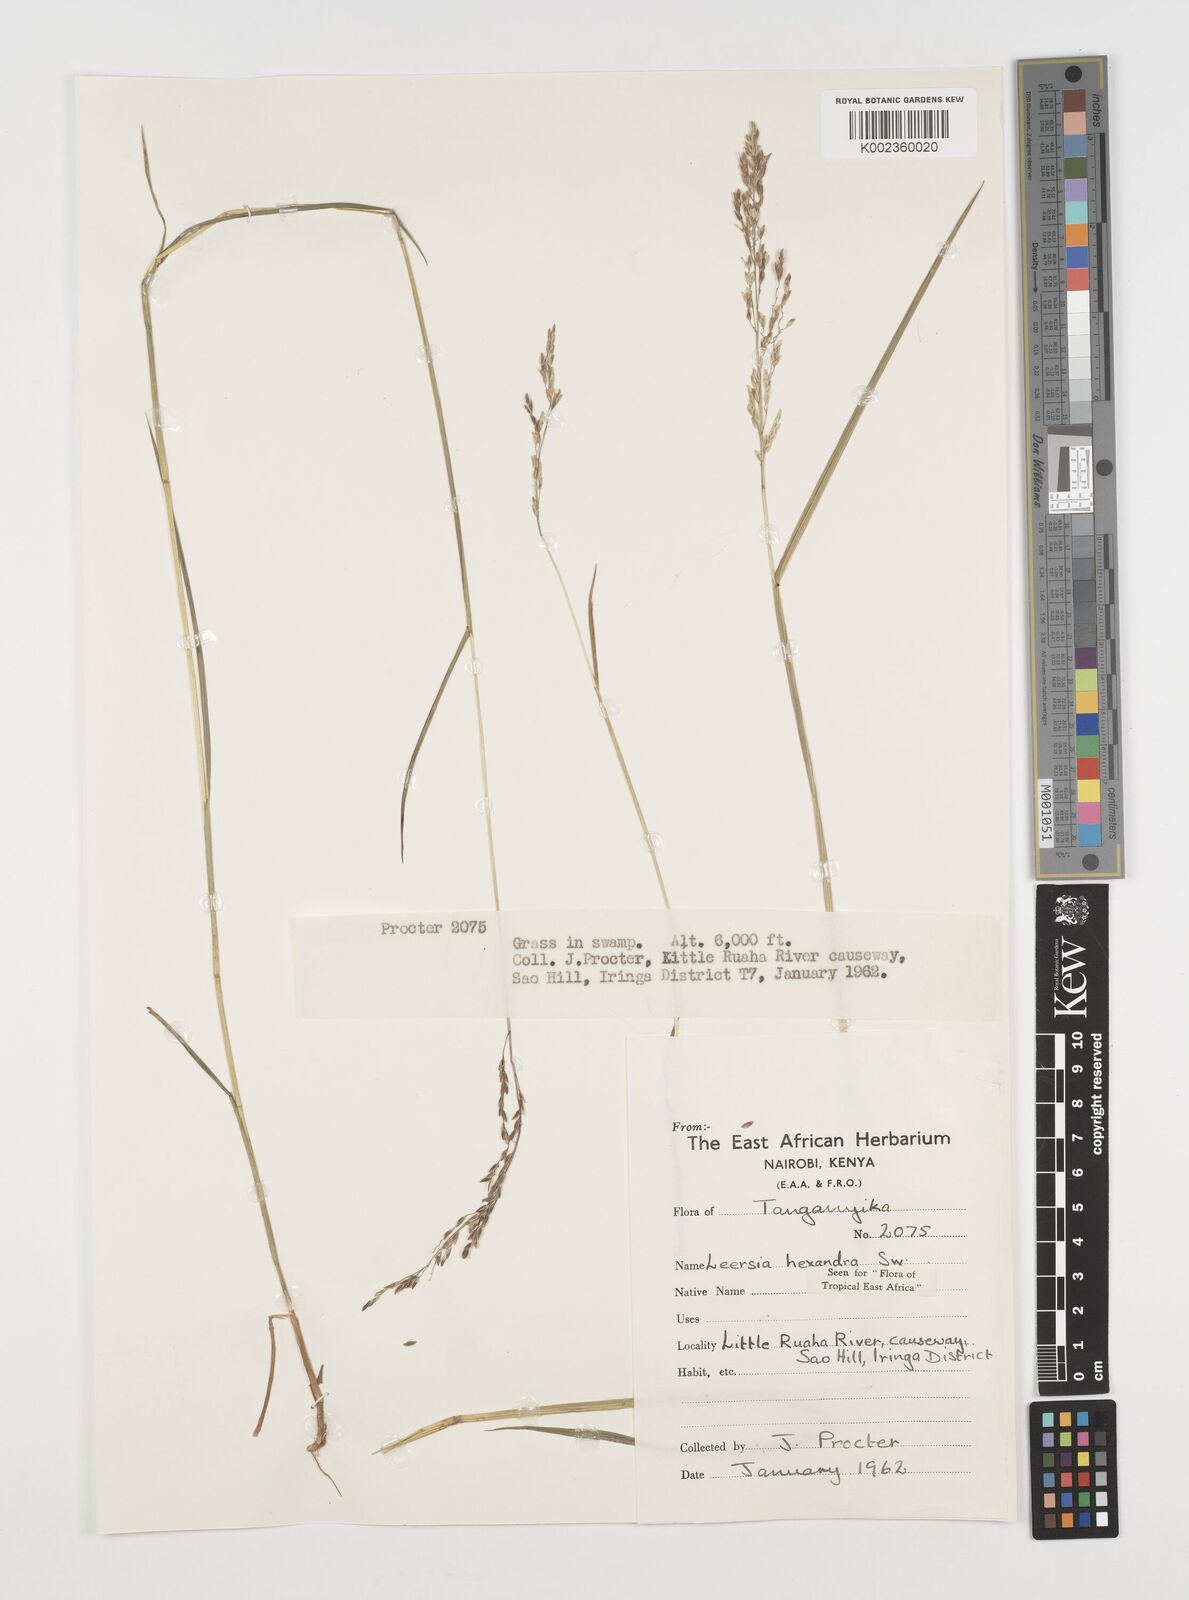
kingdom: Plantae
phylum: Tracheophyta
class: Liliopsida
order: Poales
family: Poaceae
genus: Leersia
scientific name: Leersia hexandra
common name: Southern cut grass
